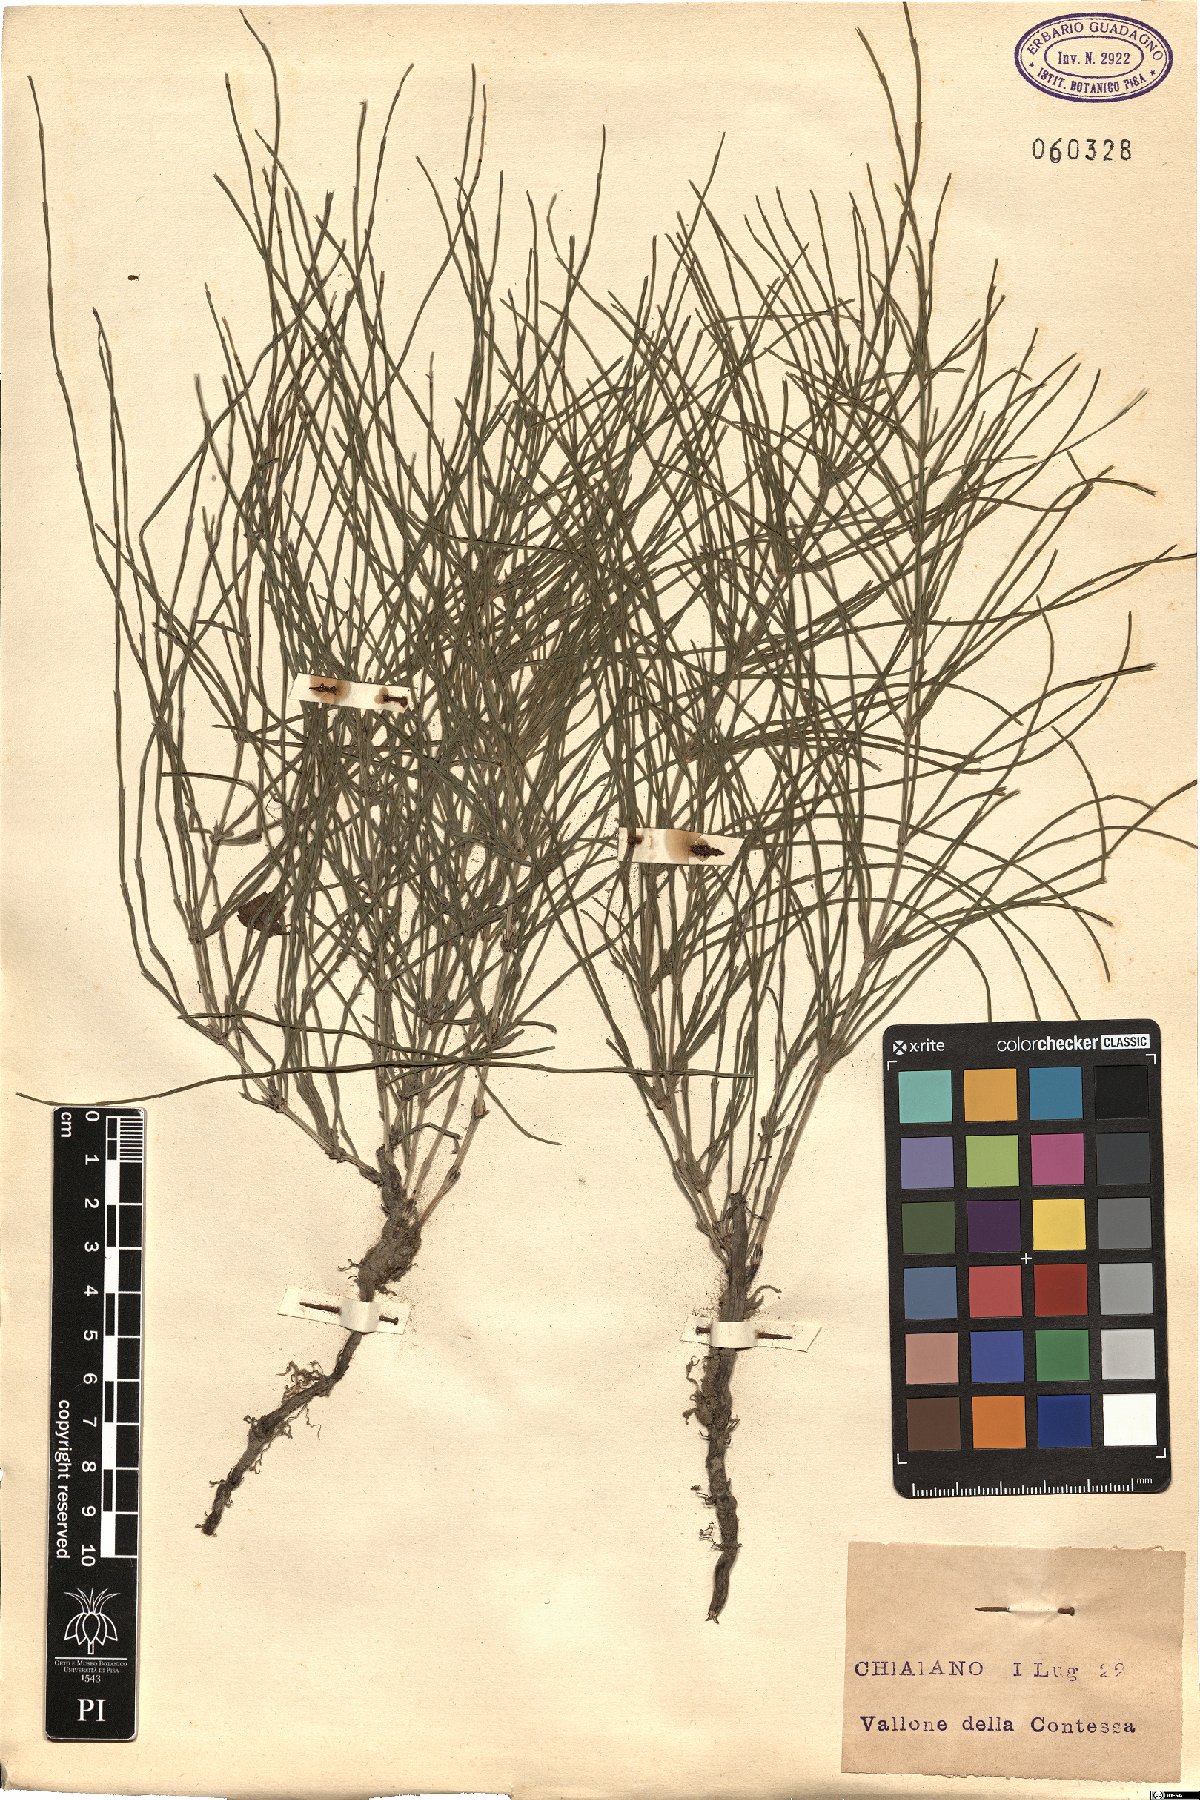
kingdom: Plantae
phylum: Tracheophyta
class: Polypodiopsida
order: Equisetales
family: Equisetaceae
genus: Equisetum
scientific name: Equisetum
